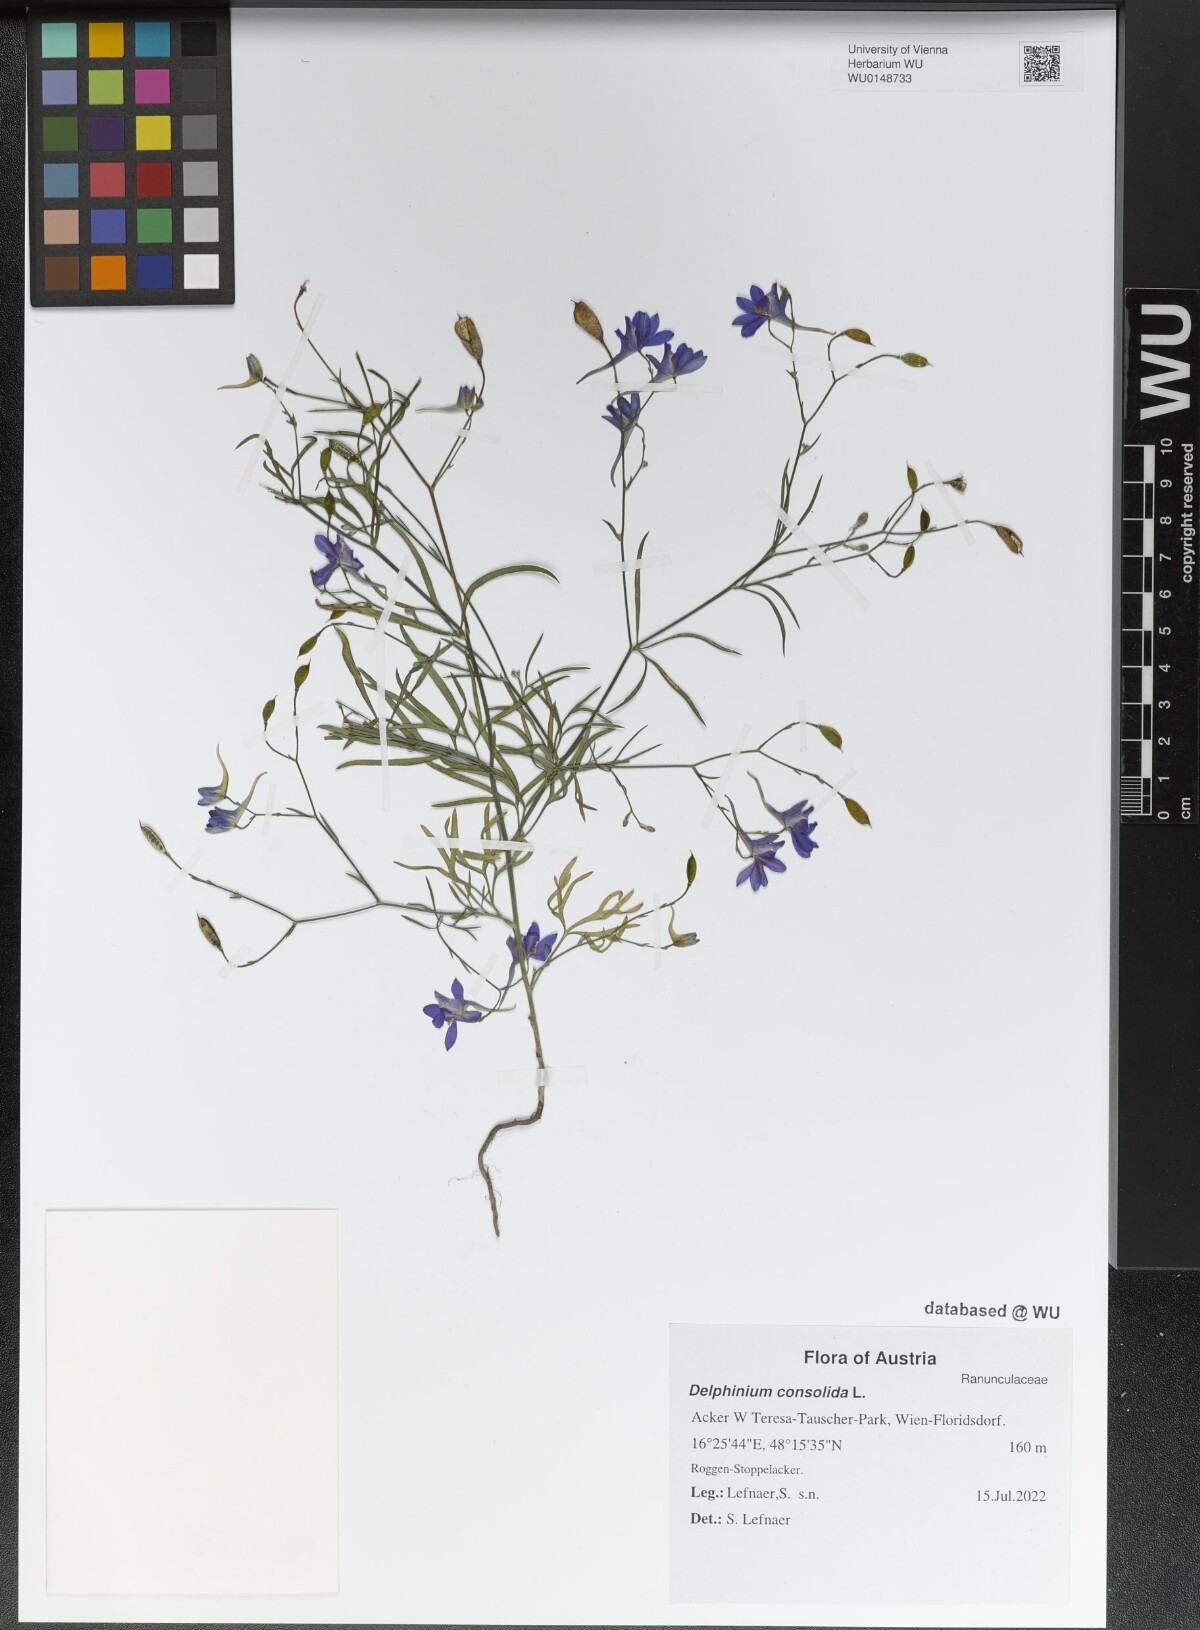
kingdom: Plantae
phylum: Tracheophyta
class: Magnoliopsida
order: Ranunculales
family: Ranunculaceae
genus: Delphinium
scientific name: Delphinium consolida
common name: Branching larkspur
